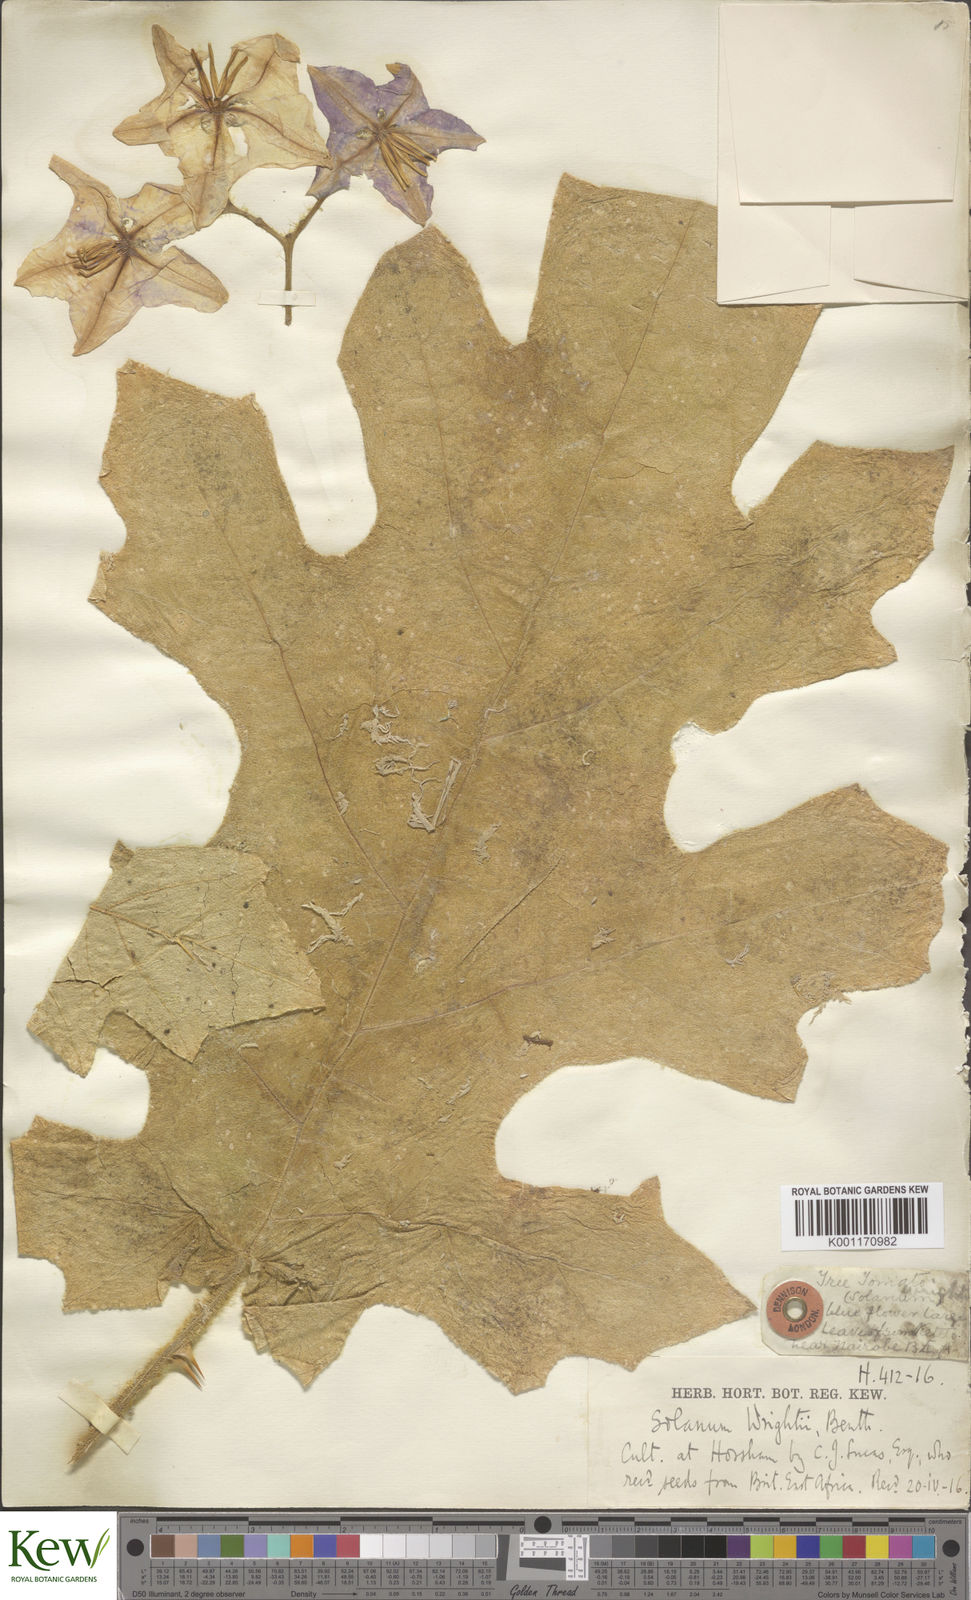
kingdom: Plantae
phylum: Tracheophyta
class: Magnoliopsida
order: Solanales
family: Solanaceae
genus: Solanum
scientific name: Solanum wrightii
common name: Brazilian potato-tree
